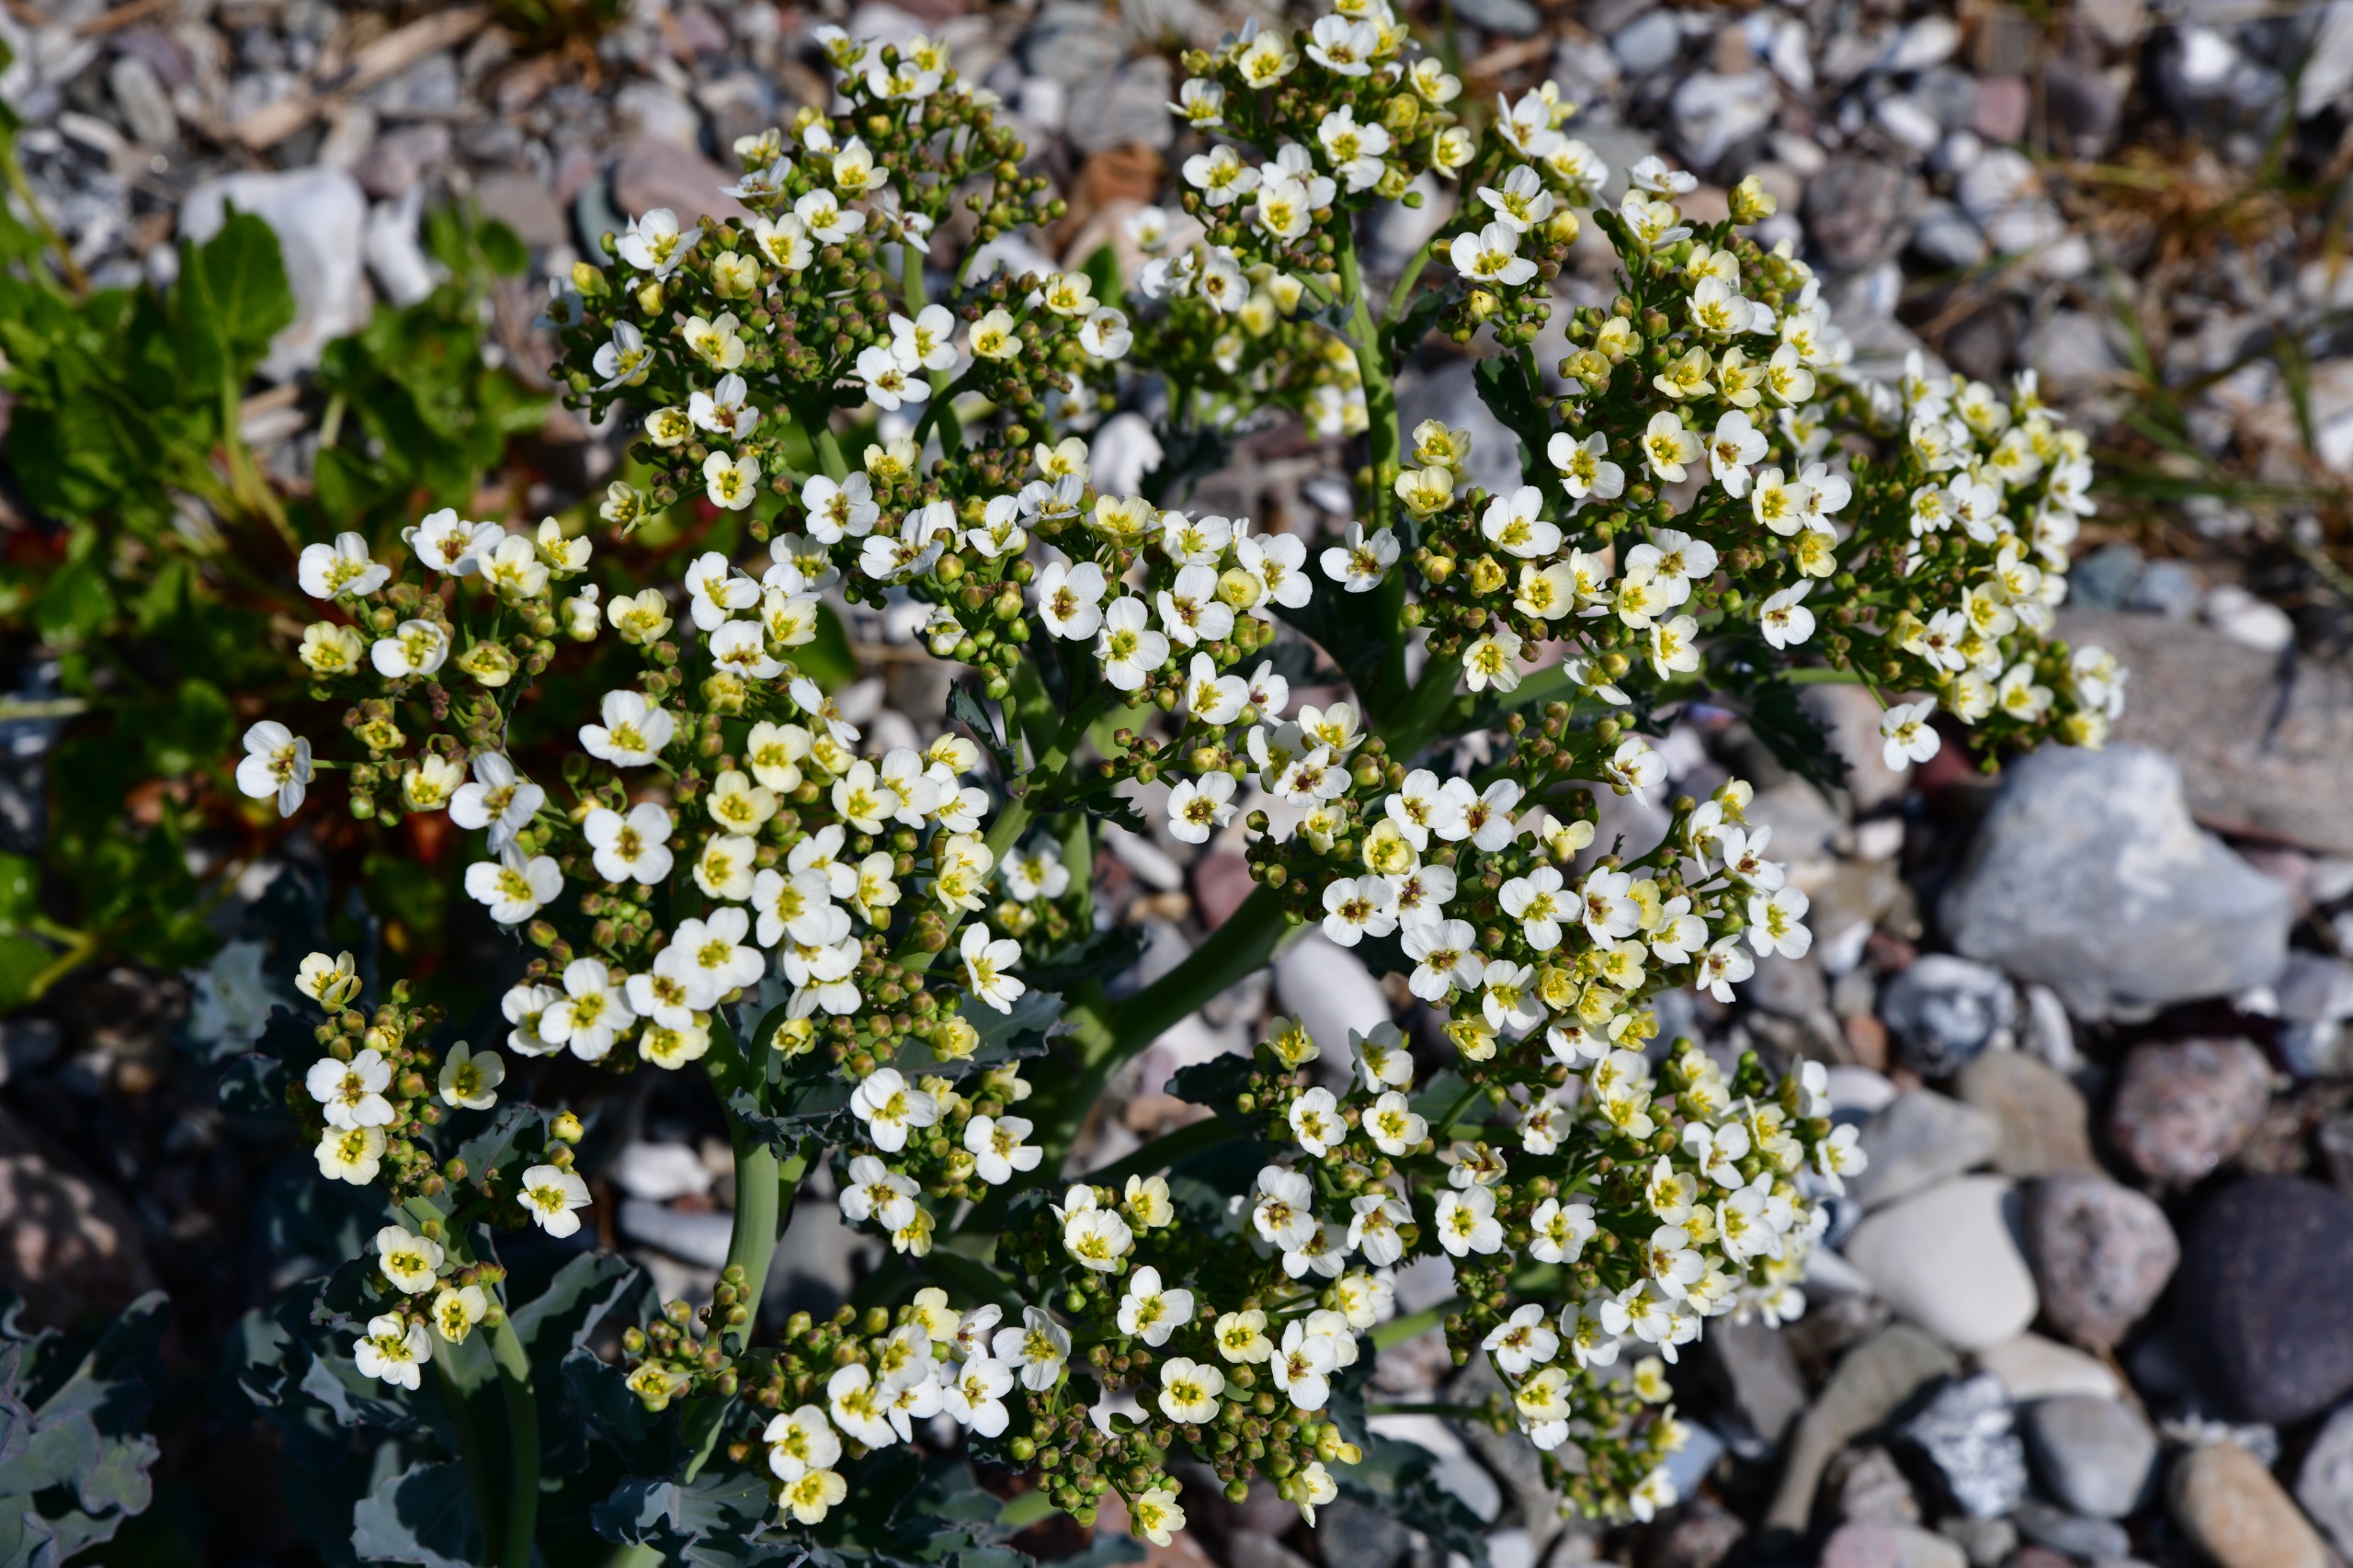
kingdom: Plantae
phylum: Tracheophyta
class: Magnoliopsida
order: Brassicales
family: Brassicaceae
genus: Crambe
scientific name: Crambe maritima
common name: Strandkål
